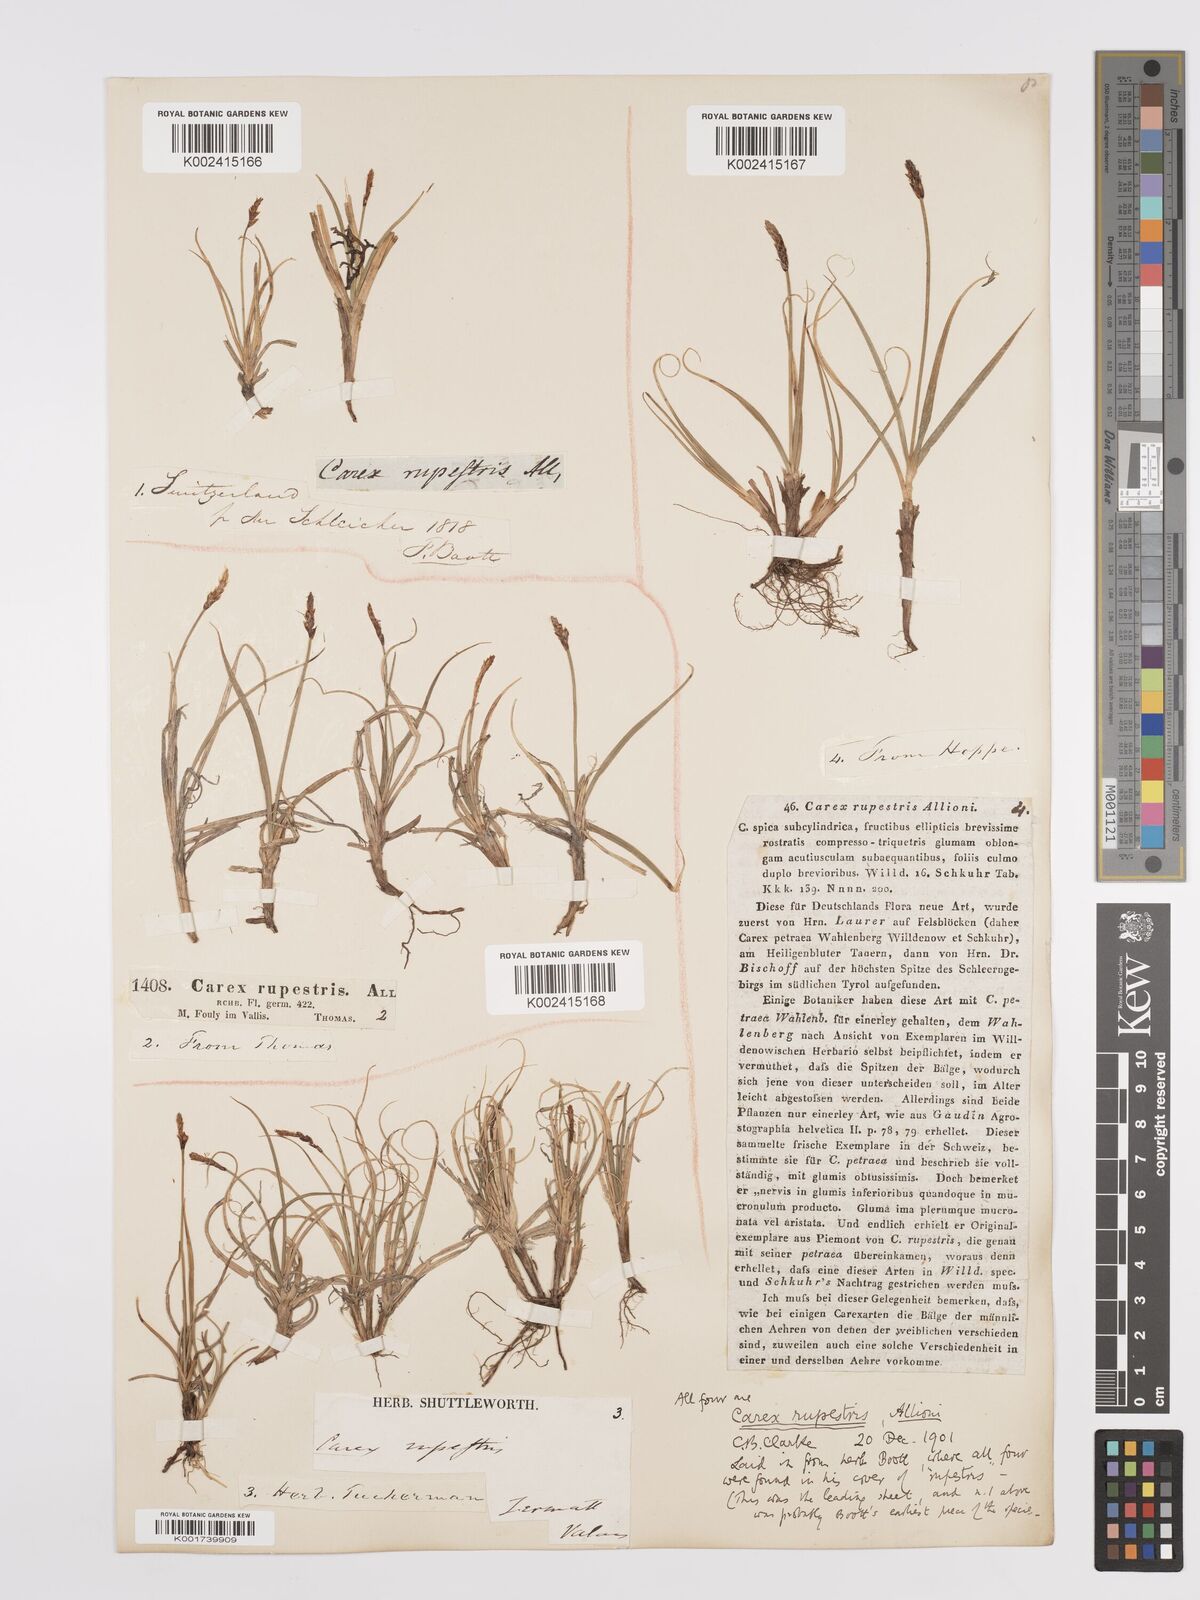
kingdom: Plantae
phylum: Tracheophyta
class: Liliopsida
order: Poales
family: Cyperaceae
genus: Carex
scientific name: Carex rupestris
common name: Rock sedge
